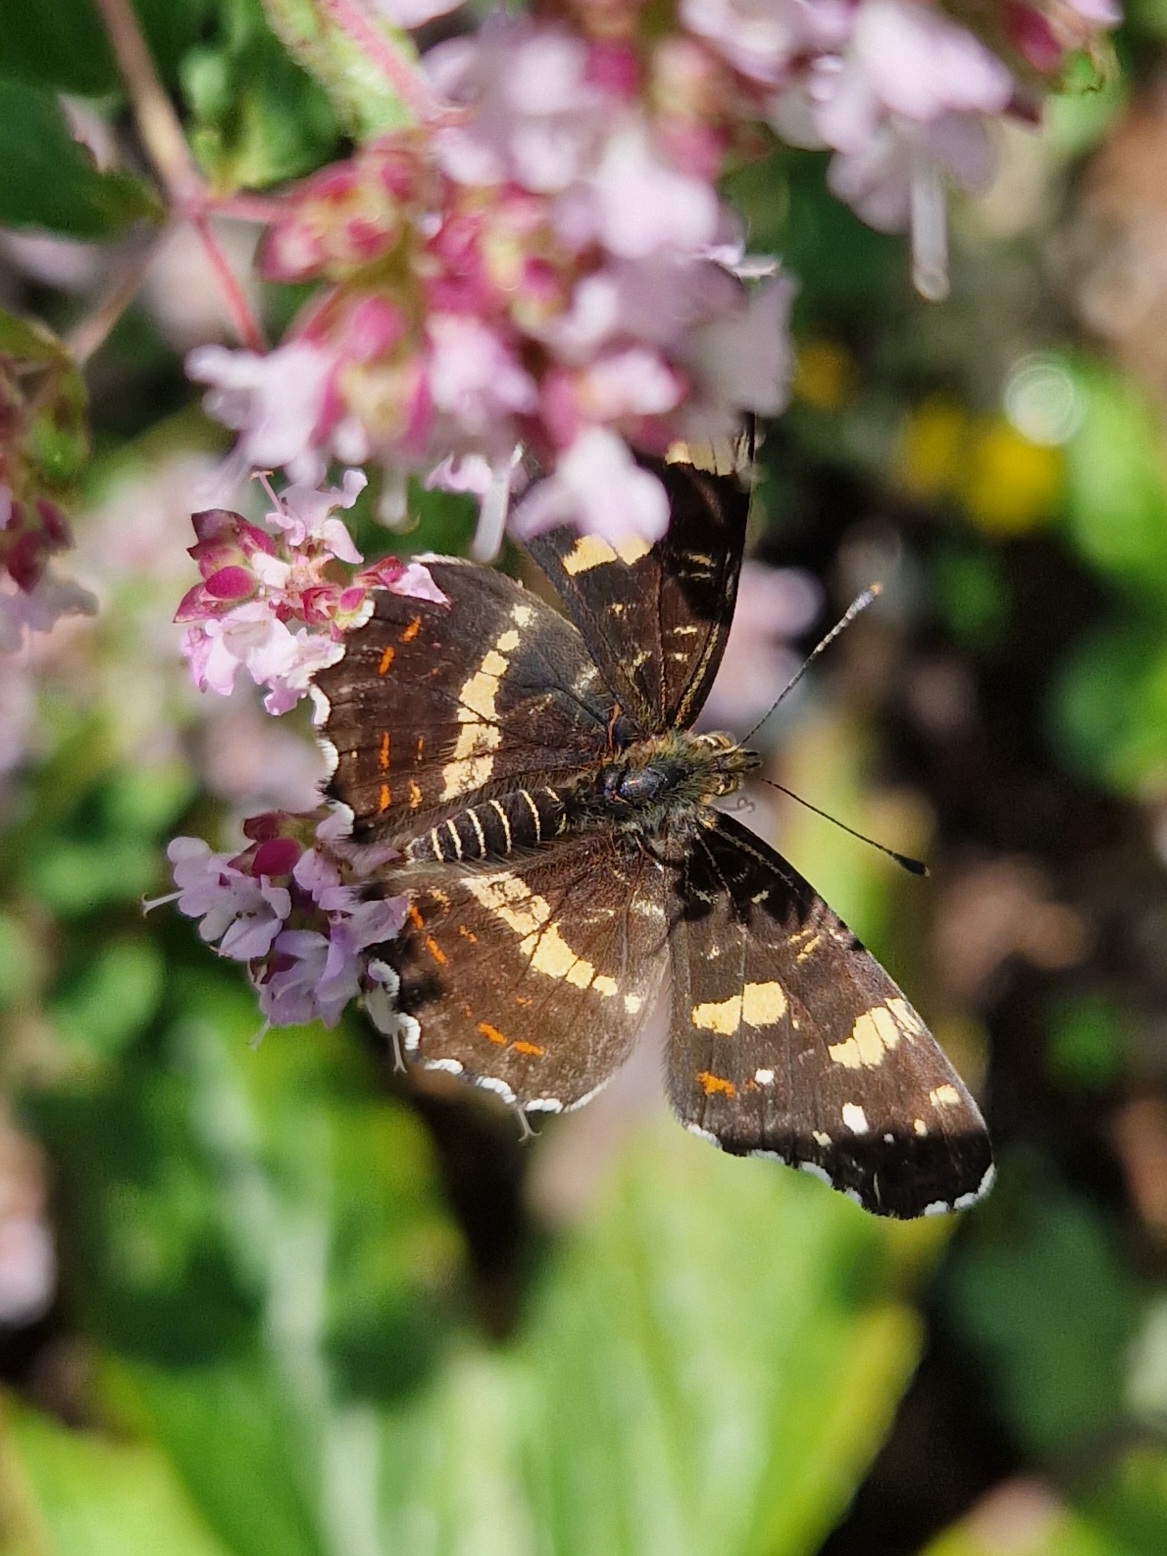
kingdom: Animalia
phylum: Arthropoda
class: Insecta
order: Lepidoptera
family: Nymphalidae
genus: Araschnia
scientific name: Araschnia levana
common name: Nældesommerfugl
